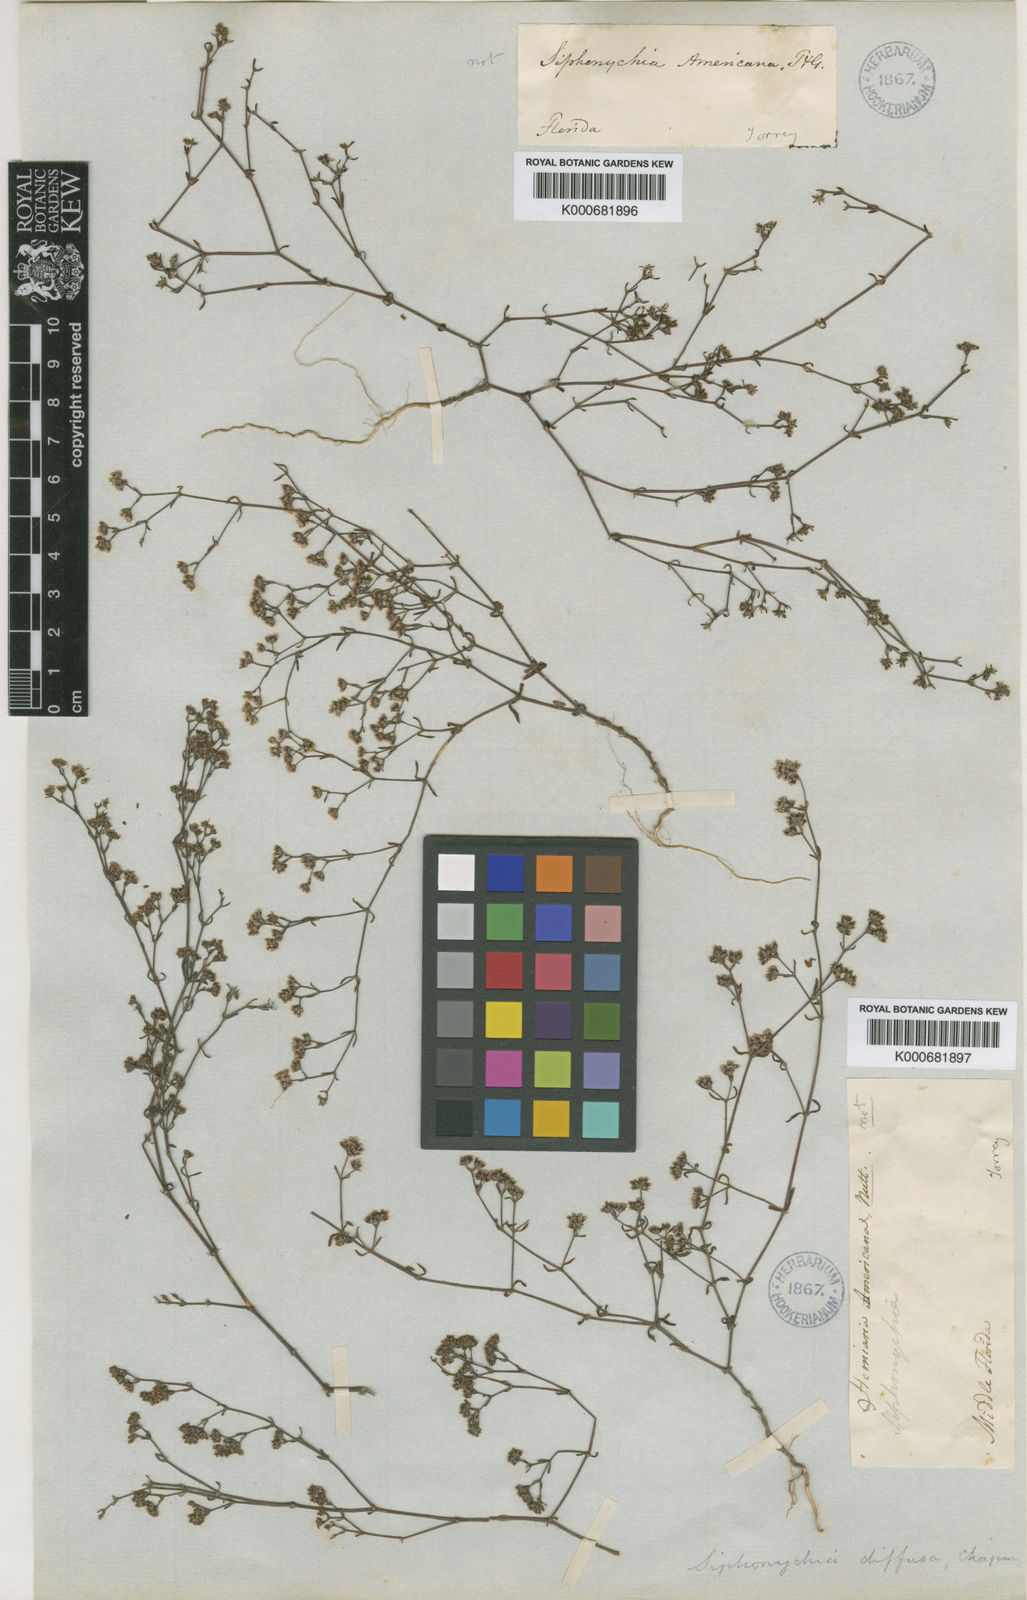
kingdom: Plantae
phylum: Tracheophyta
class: Magnoliopsida
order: Caryophyllales
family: Caryophyllaceae
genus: Paronychia
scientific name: Paronychia patula
